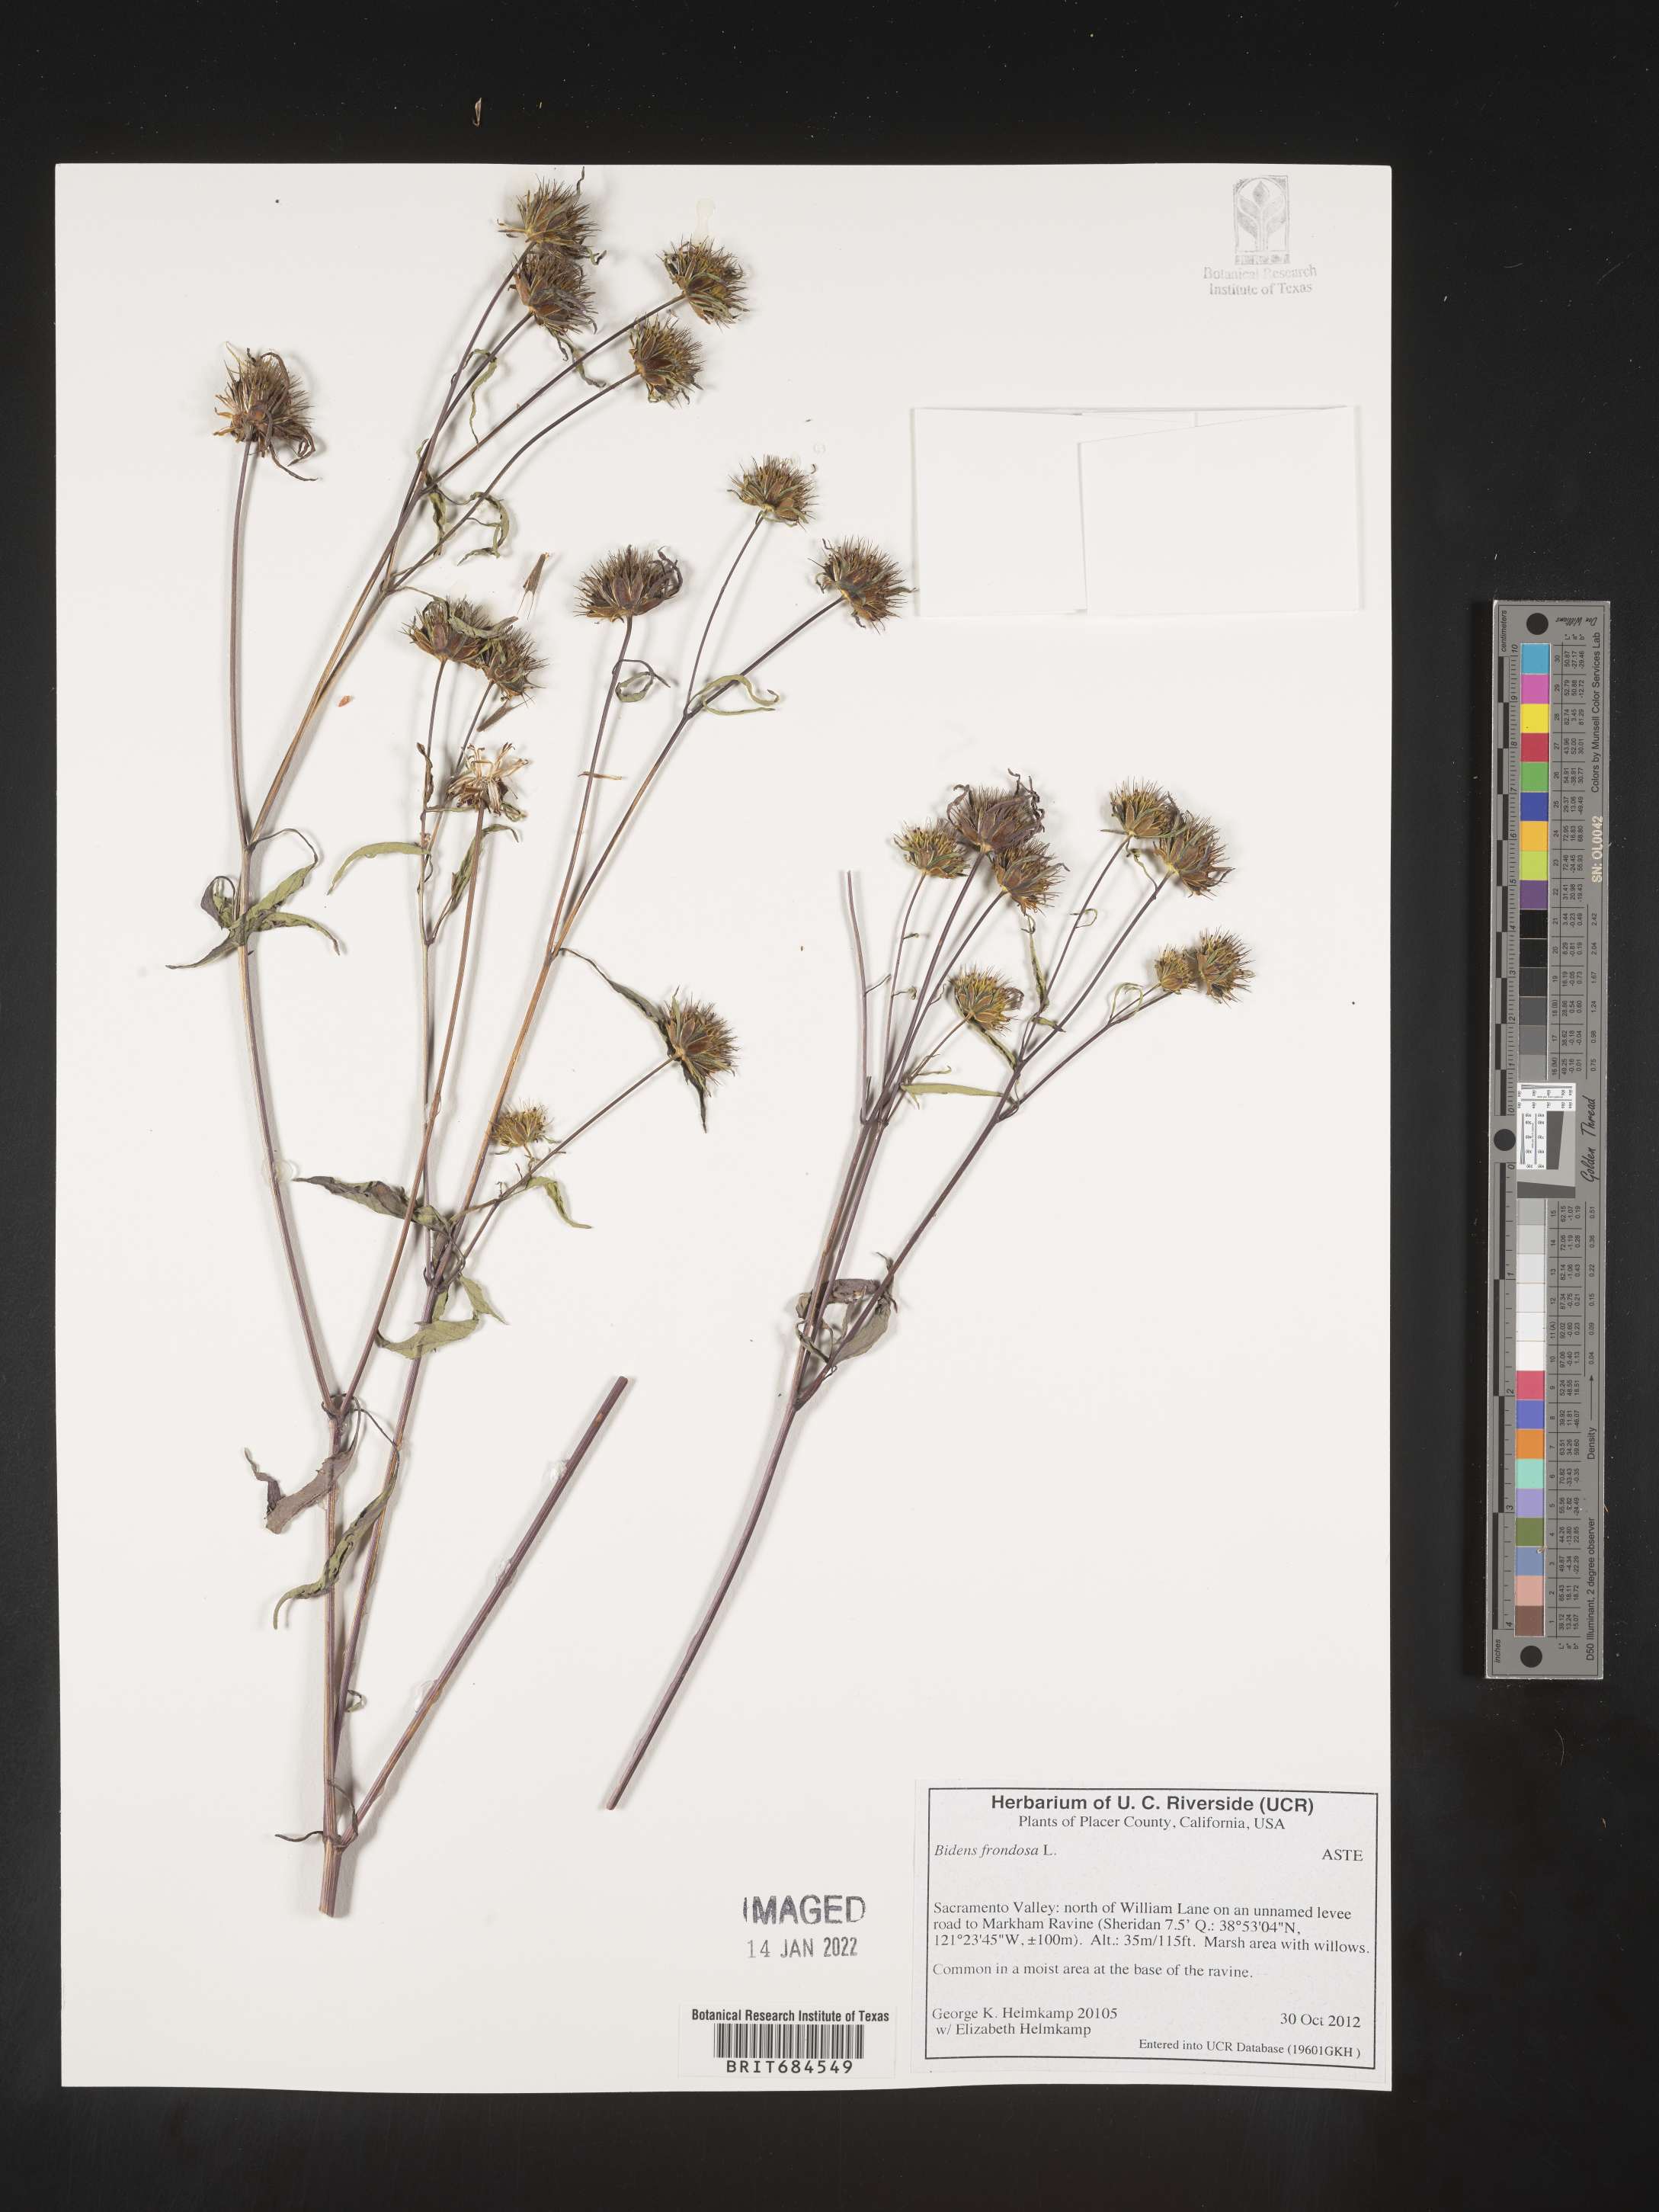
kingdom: Plantae
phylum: Tracheophyta
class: Magnoliopsida
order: Asterales
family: Asteraceae
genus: Bidens
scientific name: Bidens frondosa
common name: Beggarticks
